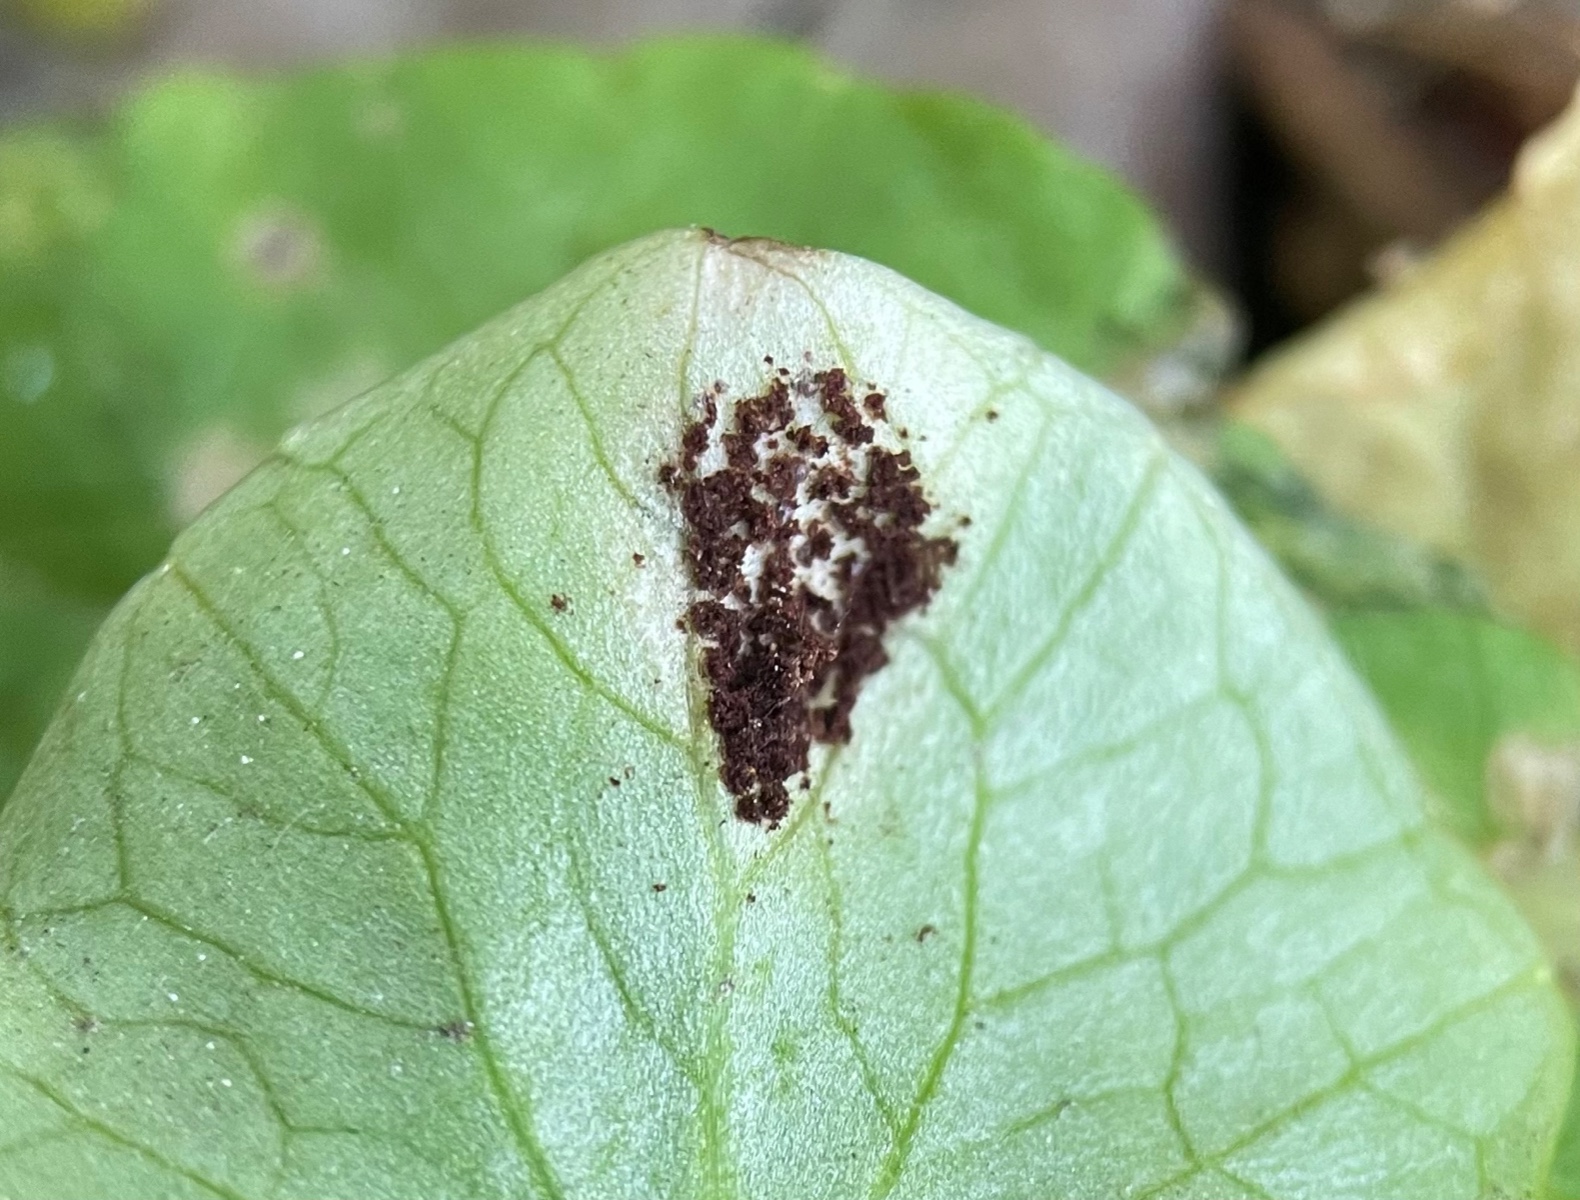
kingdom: Fungi
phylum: Basidiomycota
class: Pucciniomycetes
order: Pucciniales
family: Pucciniaceae
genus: Uromyces
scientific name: Uromyces ficariae
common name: vorterod-encellerust
